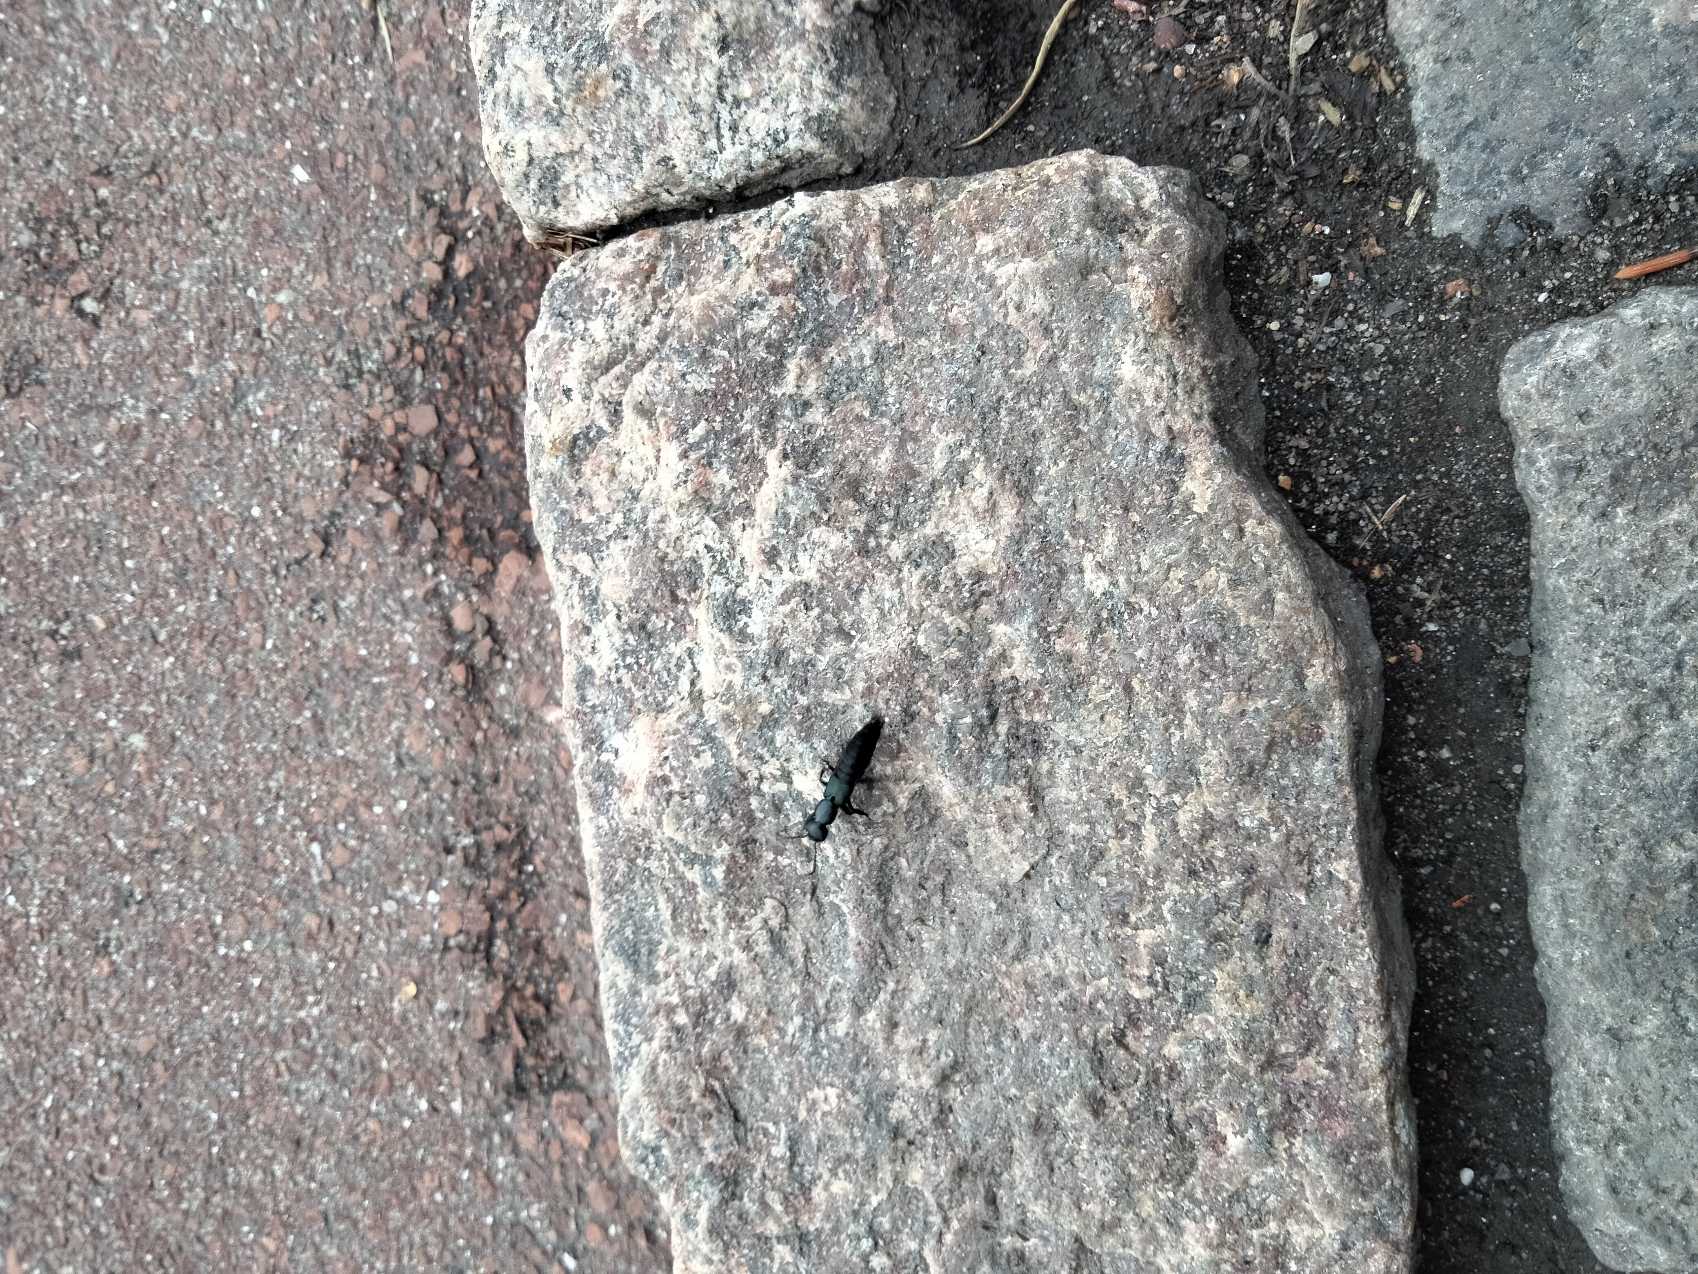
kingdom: Animalia
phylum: Arthropoda
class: Insecta
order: Coleoptera
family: Staphylinidae
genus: Ocypus
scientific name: Ocypus ophthalmicus
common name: Blå kæmperovbille
